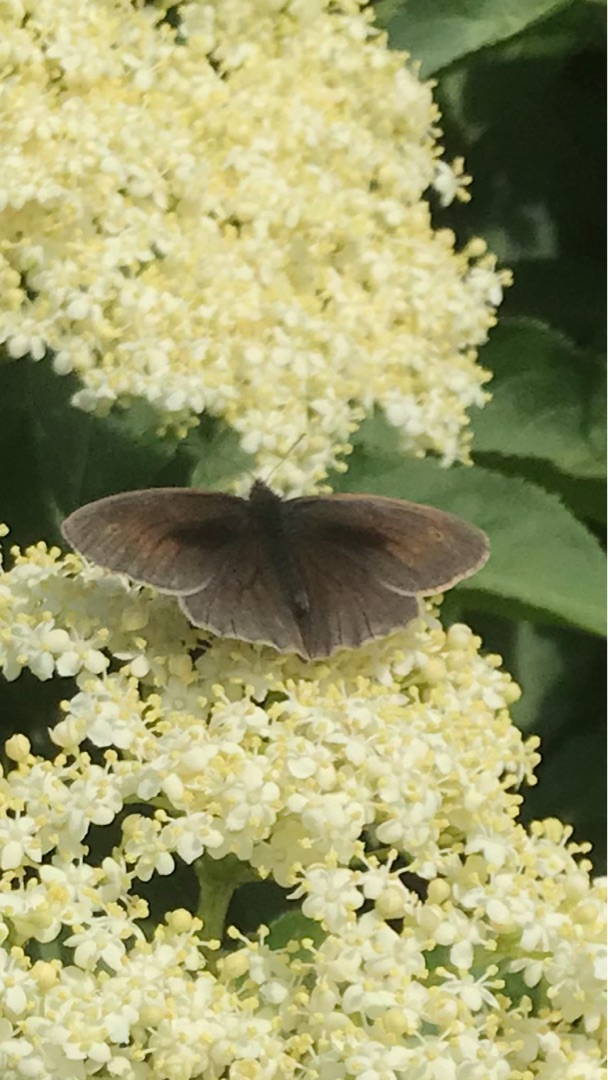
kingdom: Animalia
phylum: Arthropoda
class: Insecta
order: Lepidoptera
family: Nymphalidae
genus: Maniola
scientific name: Maniola jurtina
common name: Græsrandøje
